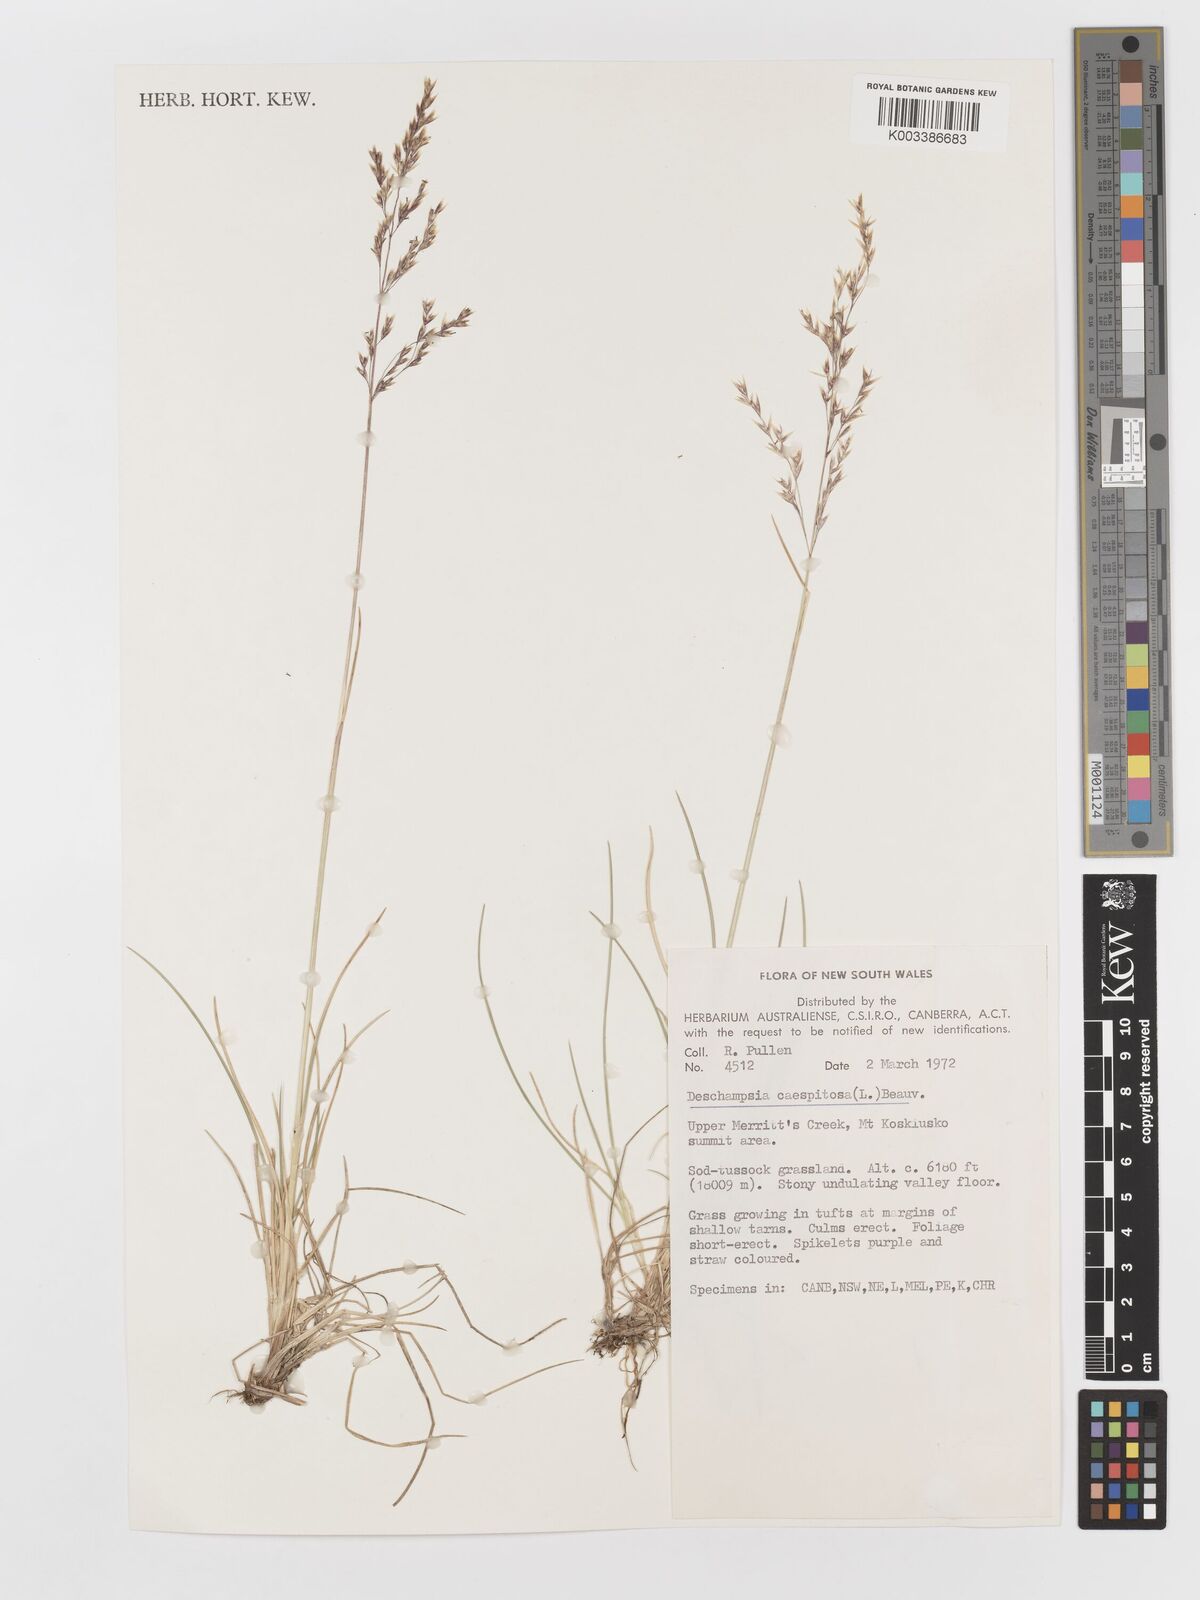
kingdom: Plantae
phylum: Tracheophyta
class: Liliopsida
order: Poales
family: Poaceae
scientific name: Poaceae
